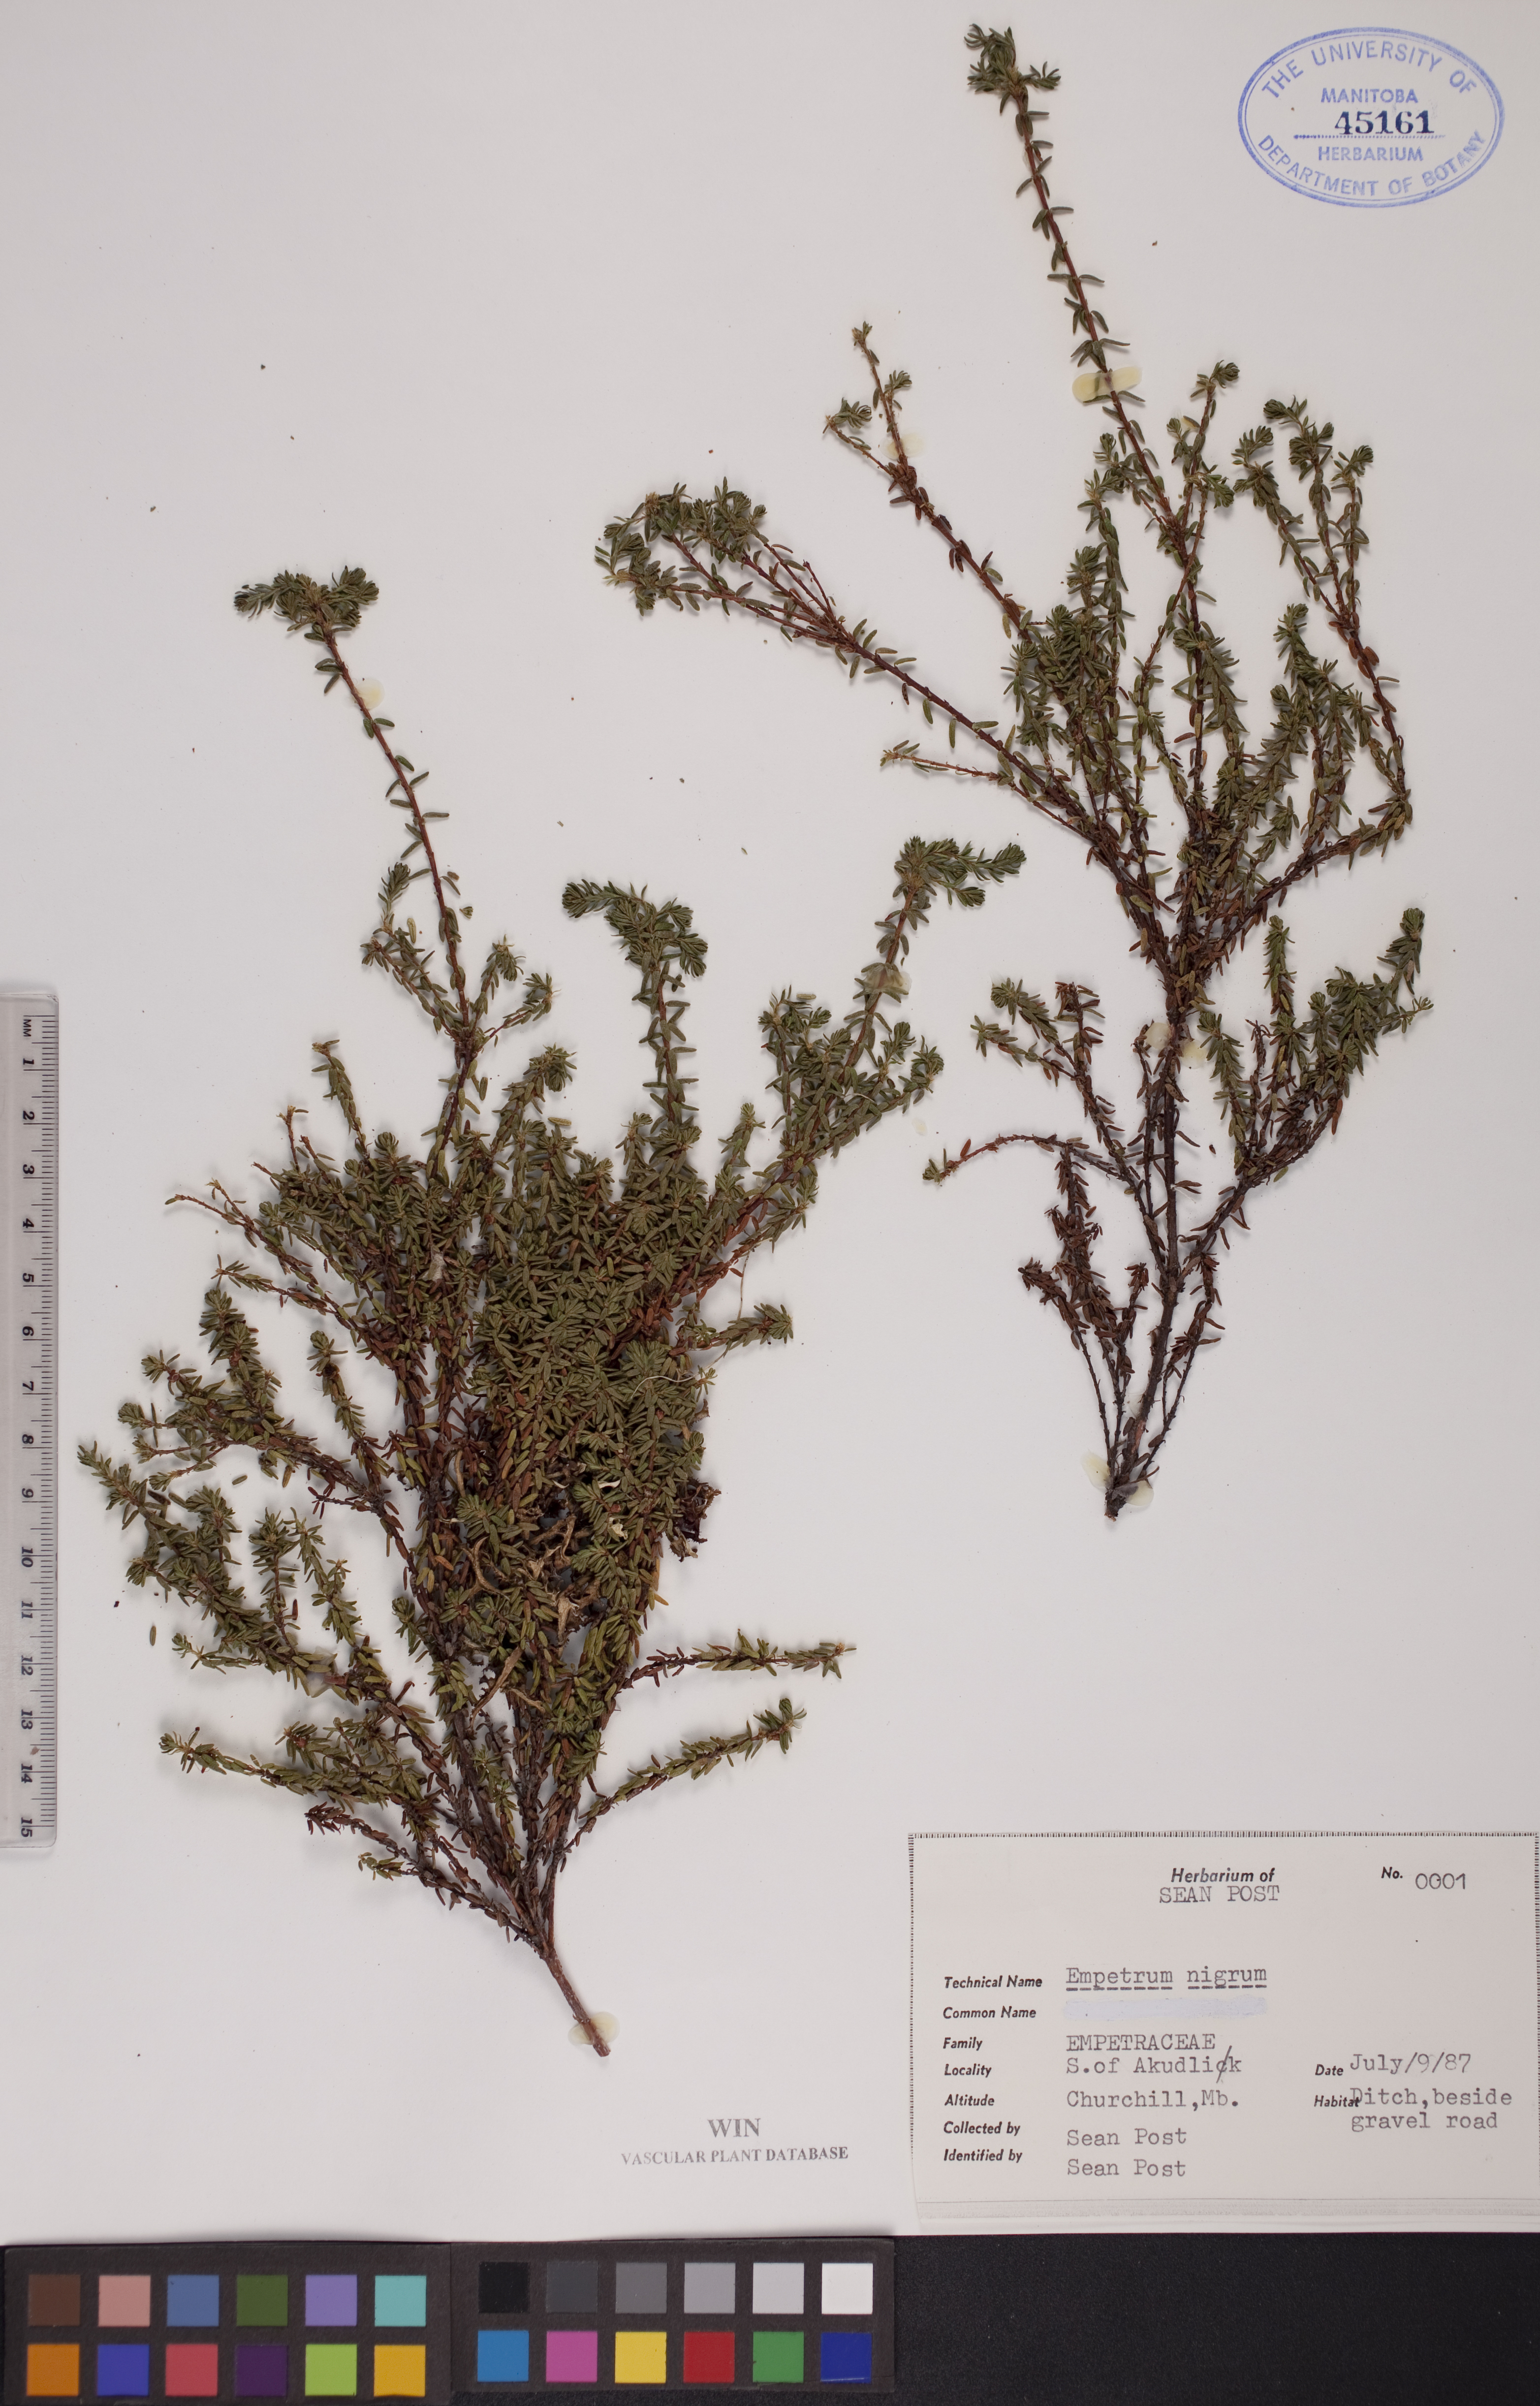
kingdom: Plantae
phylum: Tracheophyta
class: Magnoliopsida
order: Ericales
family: Ericaceae
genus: Empetrum
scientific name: Empetrum nigrum
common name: Black crowberry
